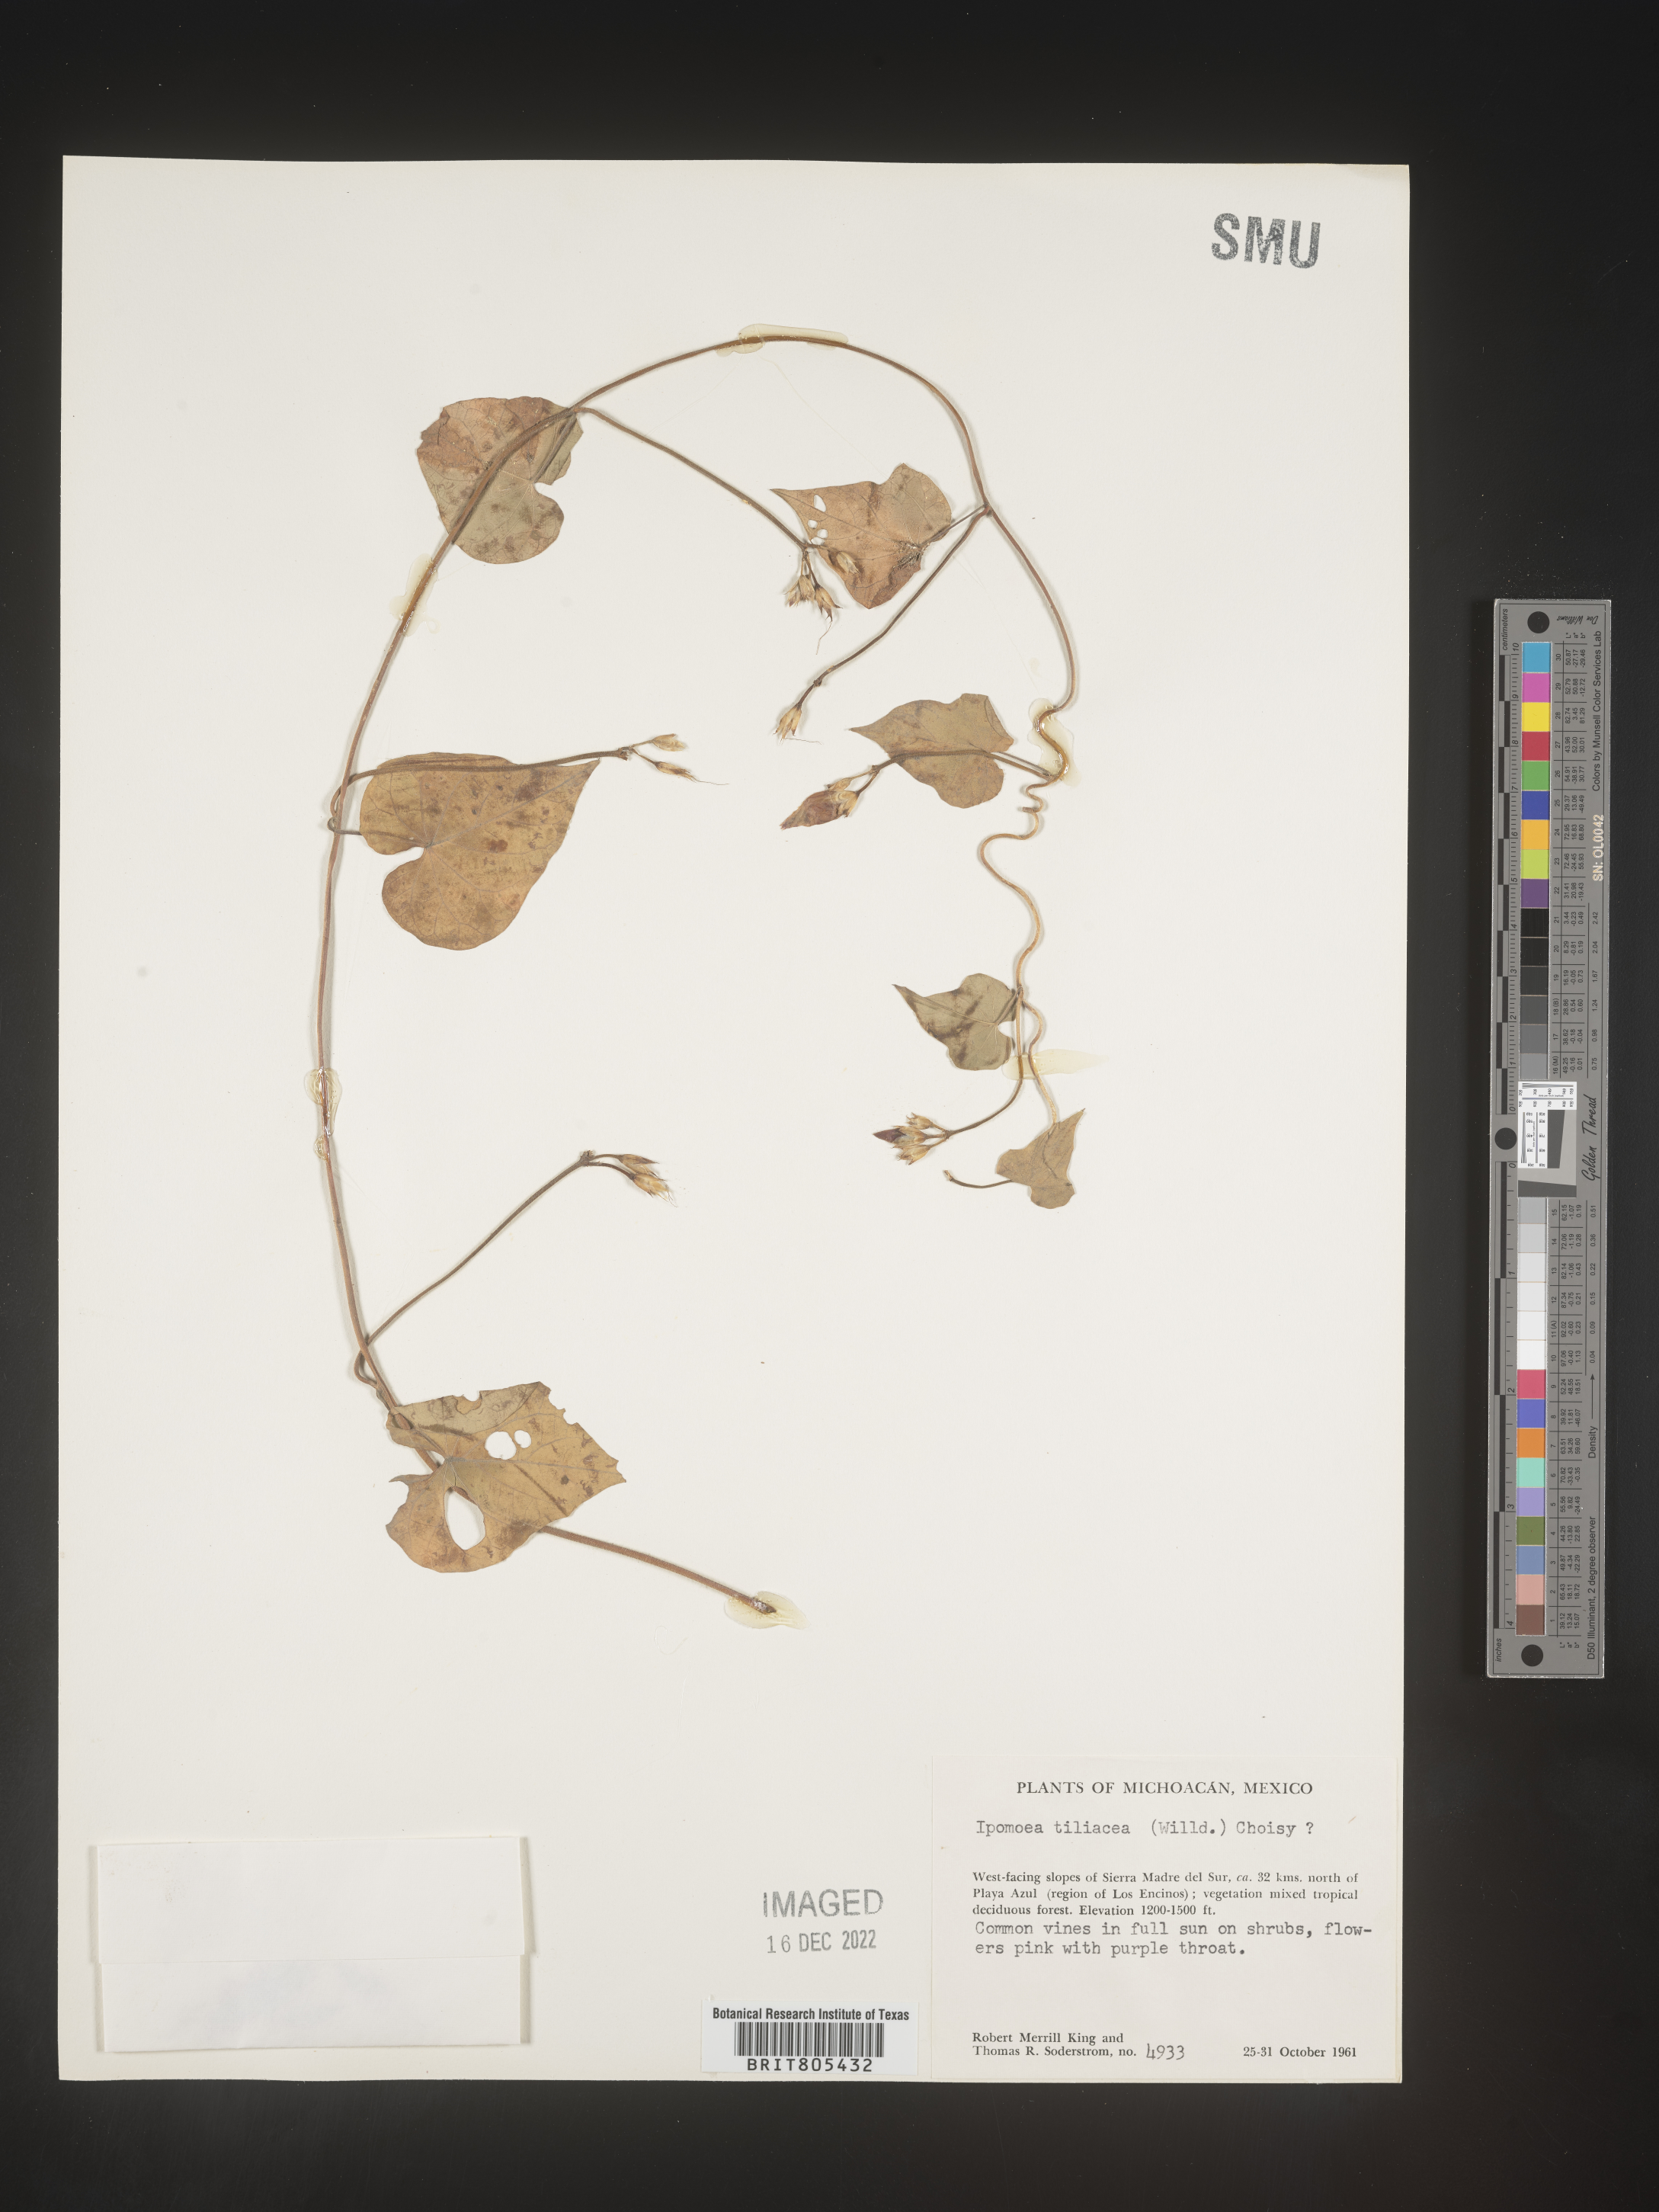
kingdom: Plantae
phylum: Tracheophyta
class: Magnoliopsida
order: Solanales
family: Convolvulaceae
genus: Ipomoea
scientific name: Ipomoea
